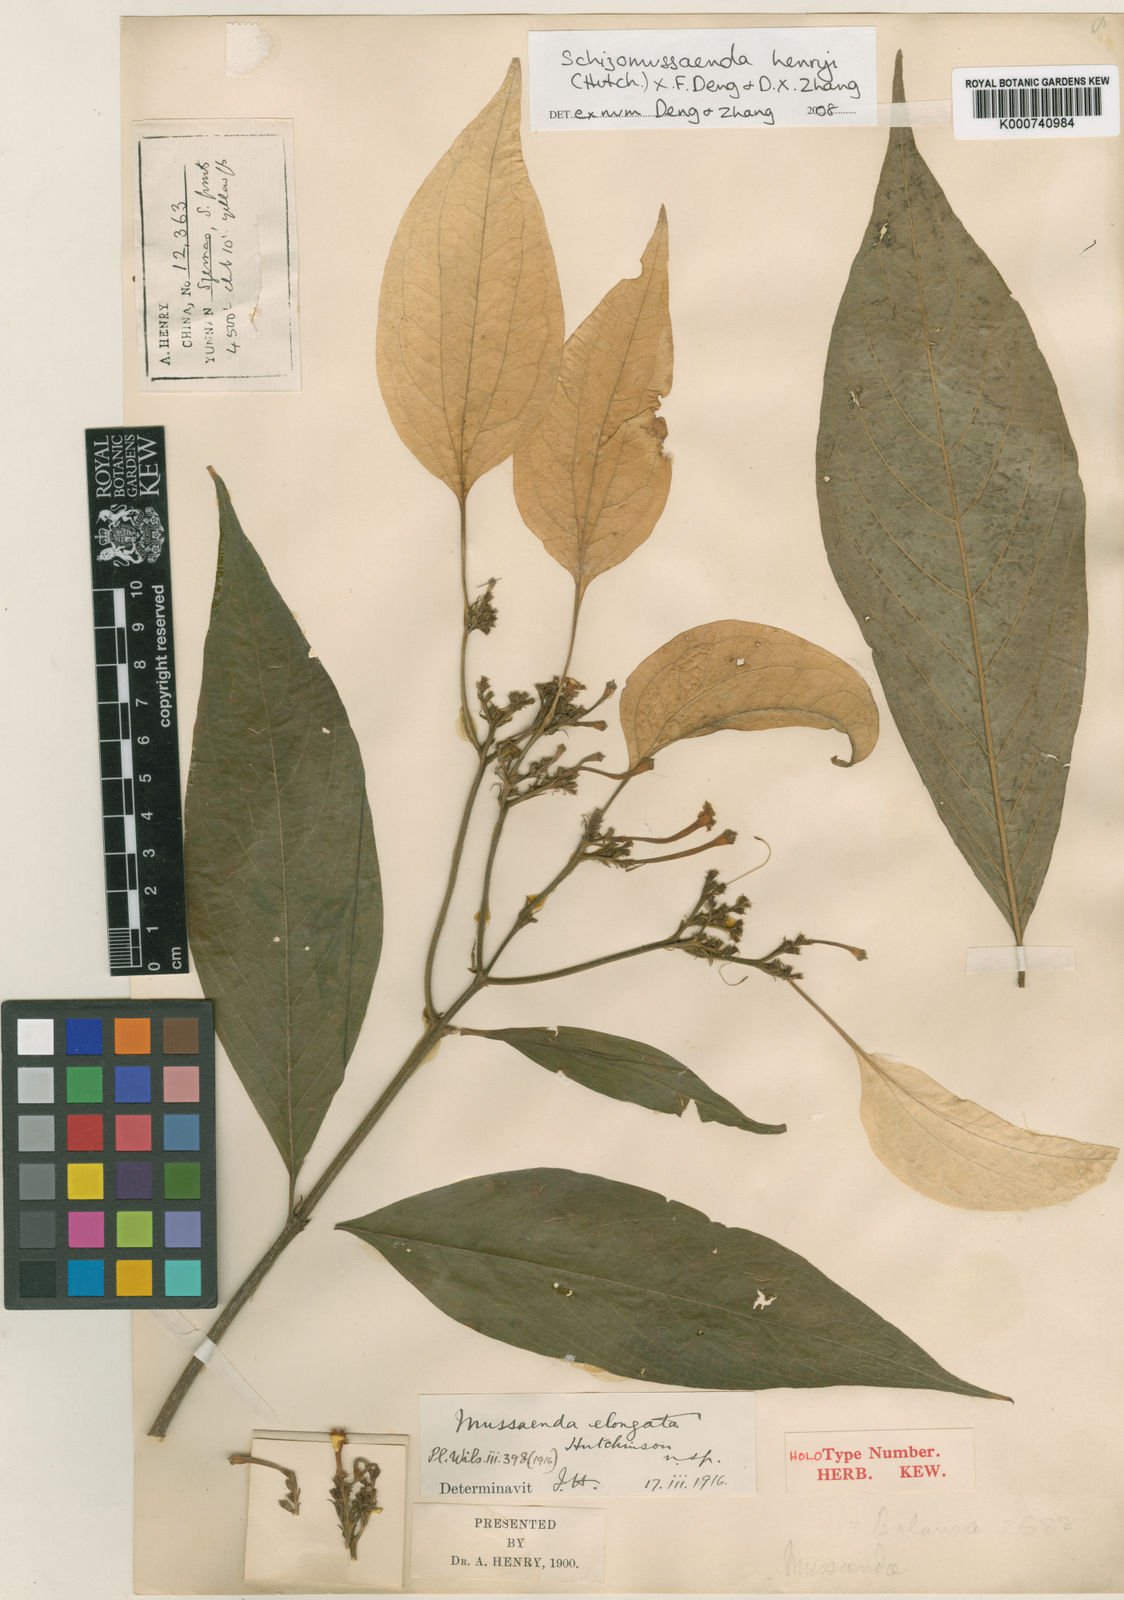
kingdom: Plantae
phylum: Tracheophyta
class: Magnoliopsida
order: Gentianales
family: Rubiaceae
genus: Schizomussaenda
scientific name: Schizomussaenda henryi
